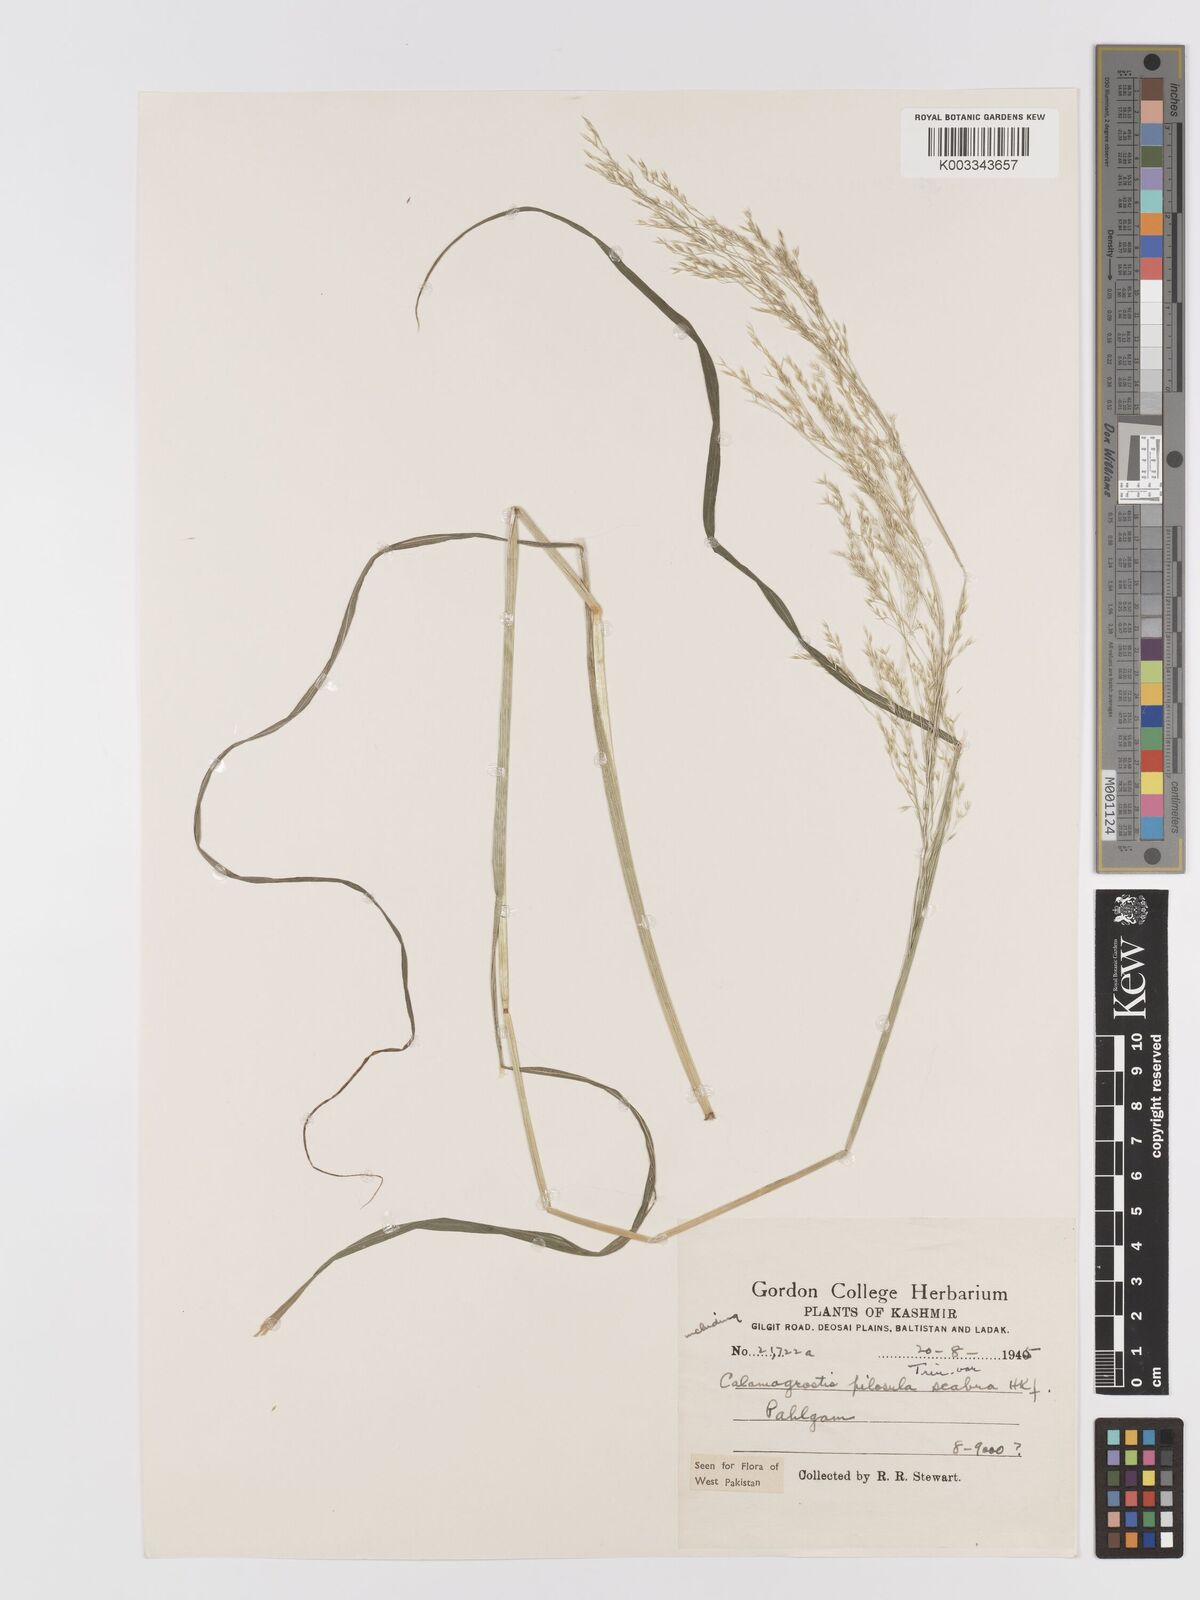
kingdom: Plantae
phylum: Tracheophyta
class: Liliopsida
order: Poales
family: Poaceae
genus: Agrostis
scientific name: Agrostis pilosula
